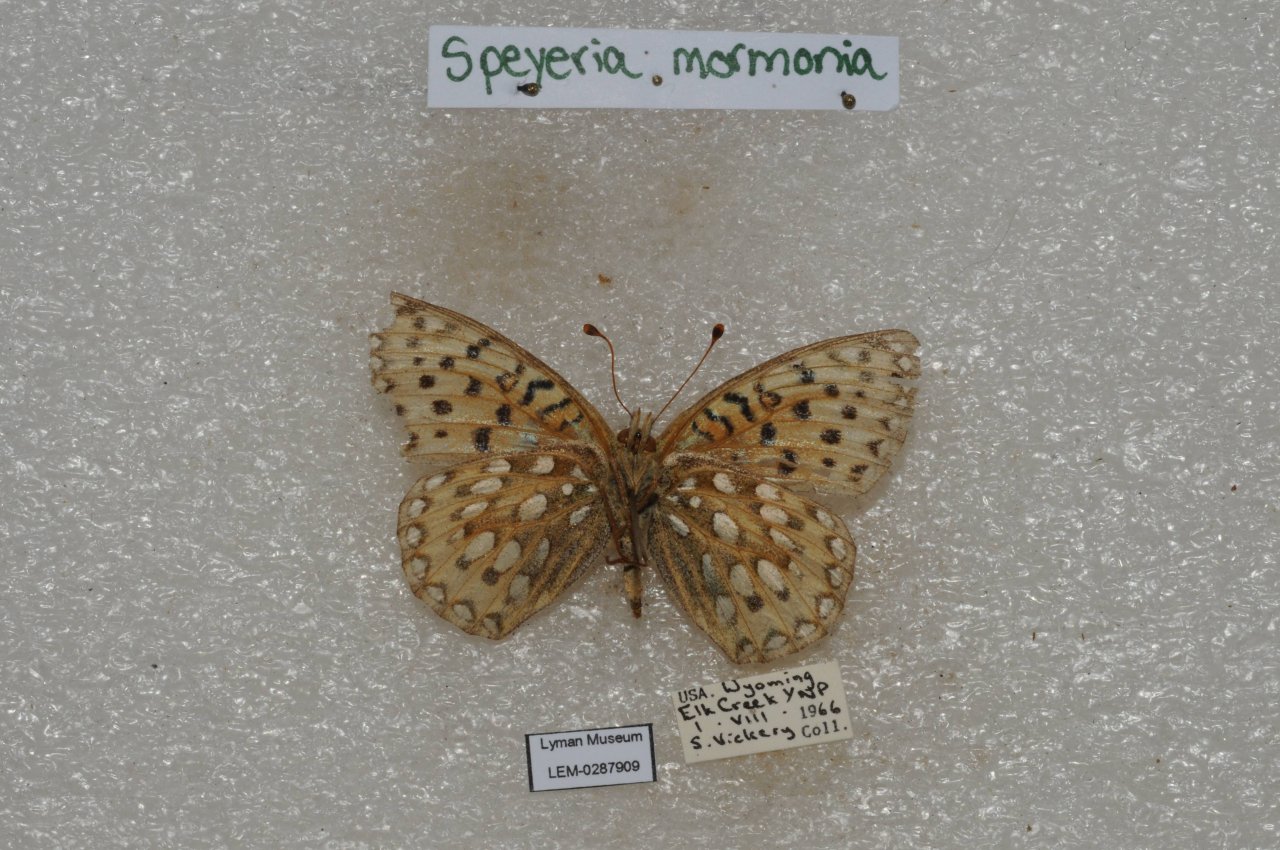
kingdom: Animalia
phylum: Arthropoda
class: Insecta
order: Lepidoptera
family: Nymphalidae
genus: Speyeria
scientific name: Speyeria mormonia
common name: Mormon Fritillary
